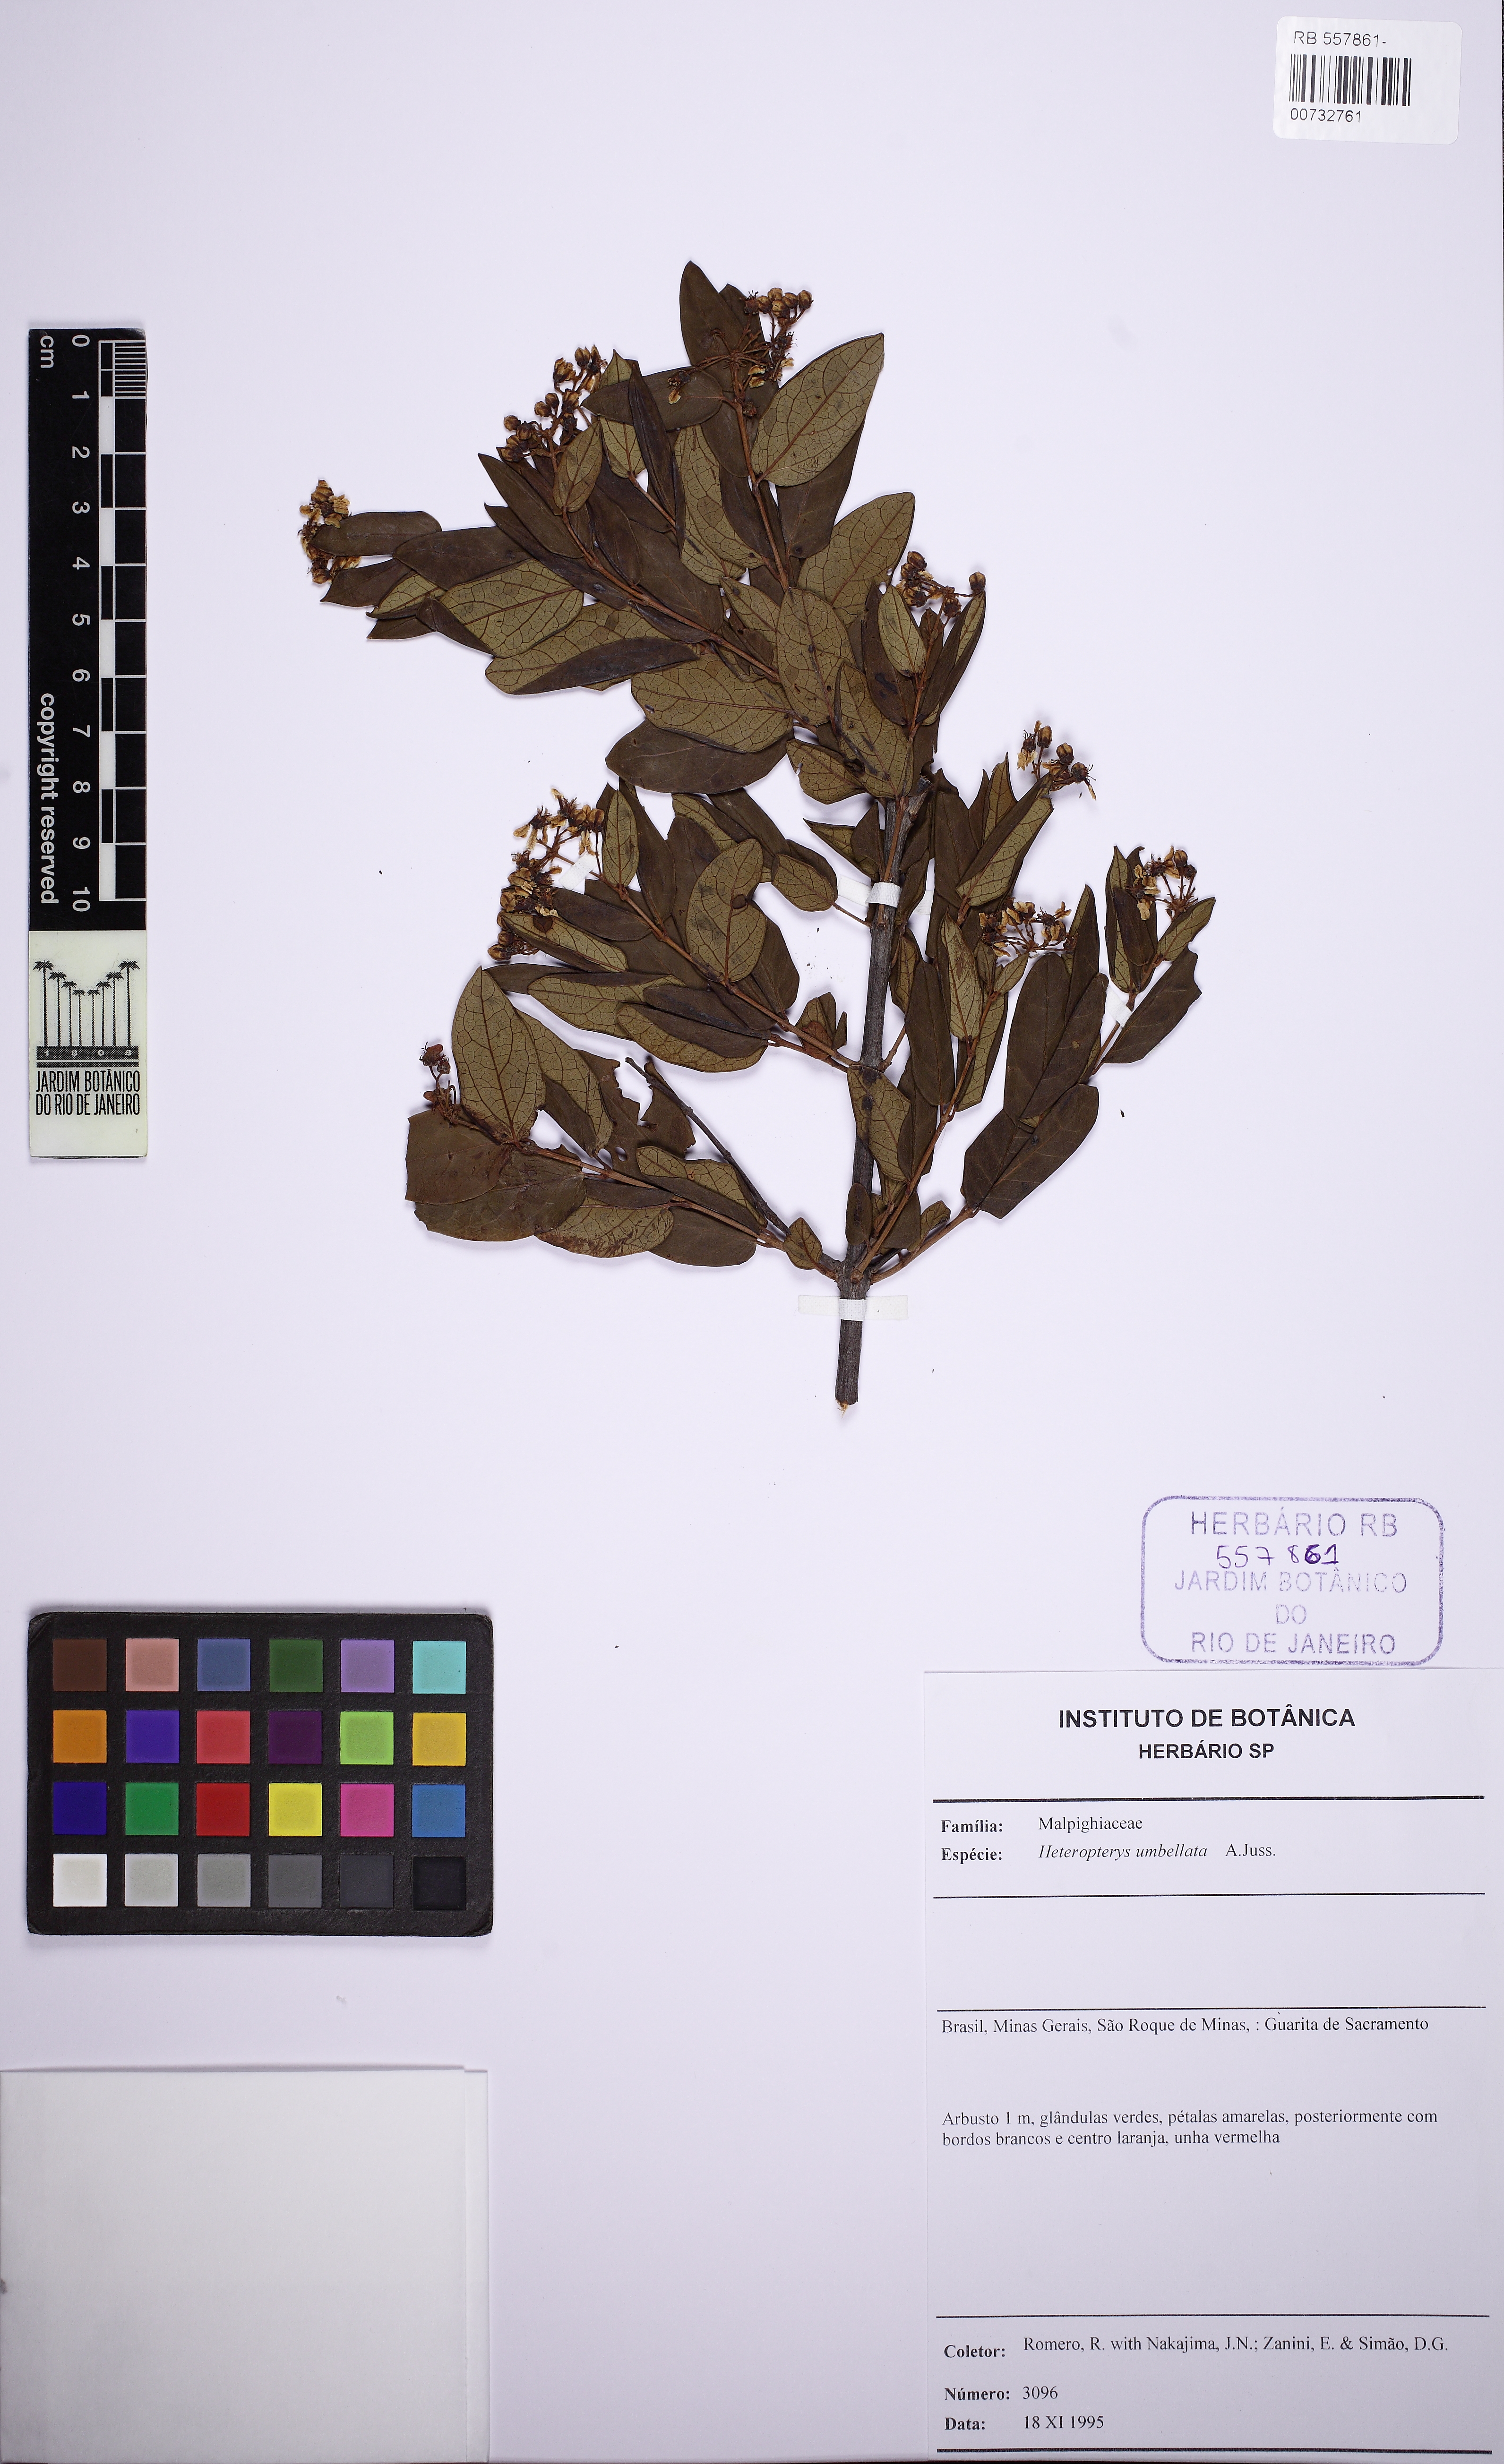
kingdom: Plantae
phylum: Tracheophyta
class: Magnoliopsida
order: Malpighiales
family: Malpighiaceae
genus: Heteropterys
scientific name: Heteropterys umbellata
